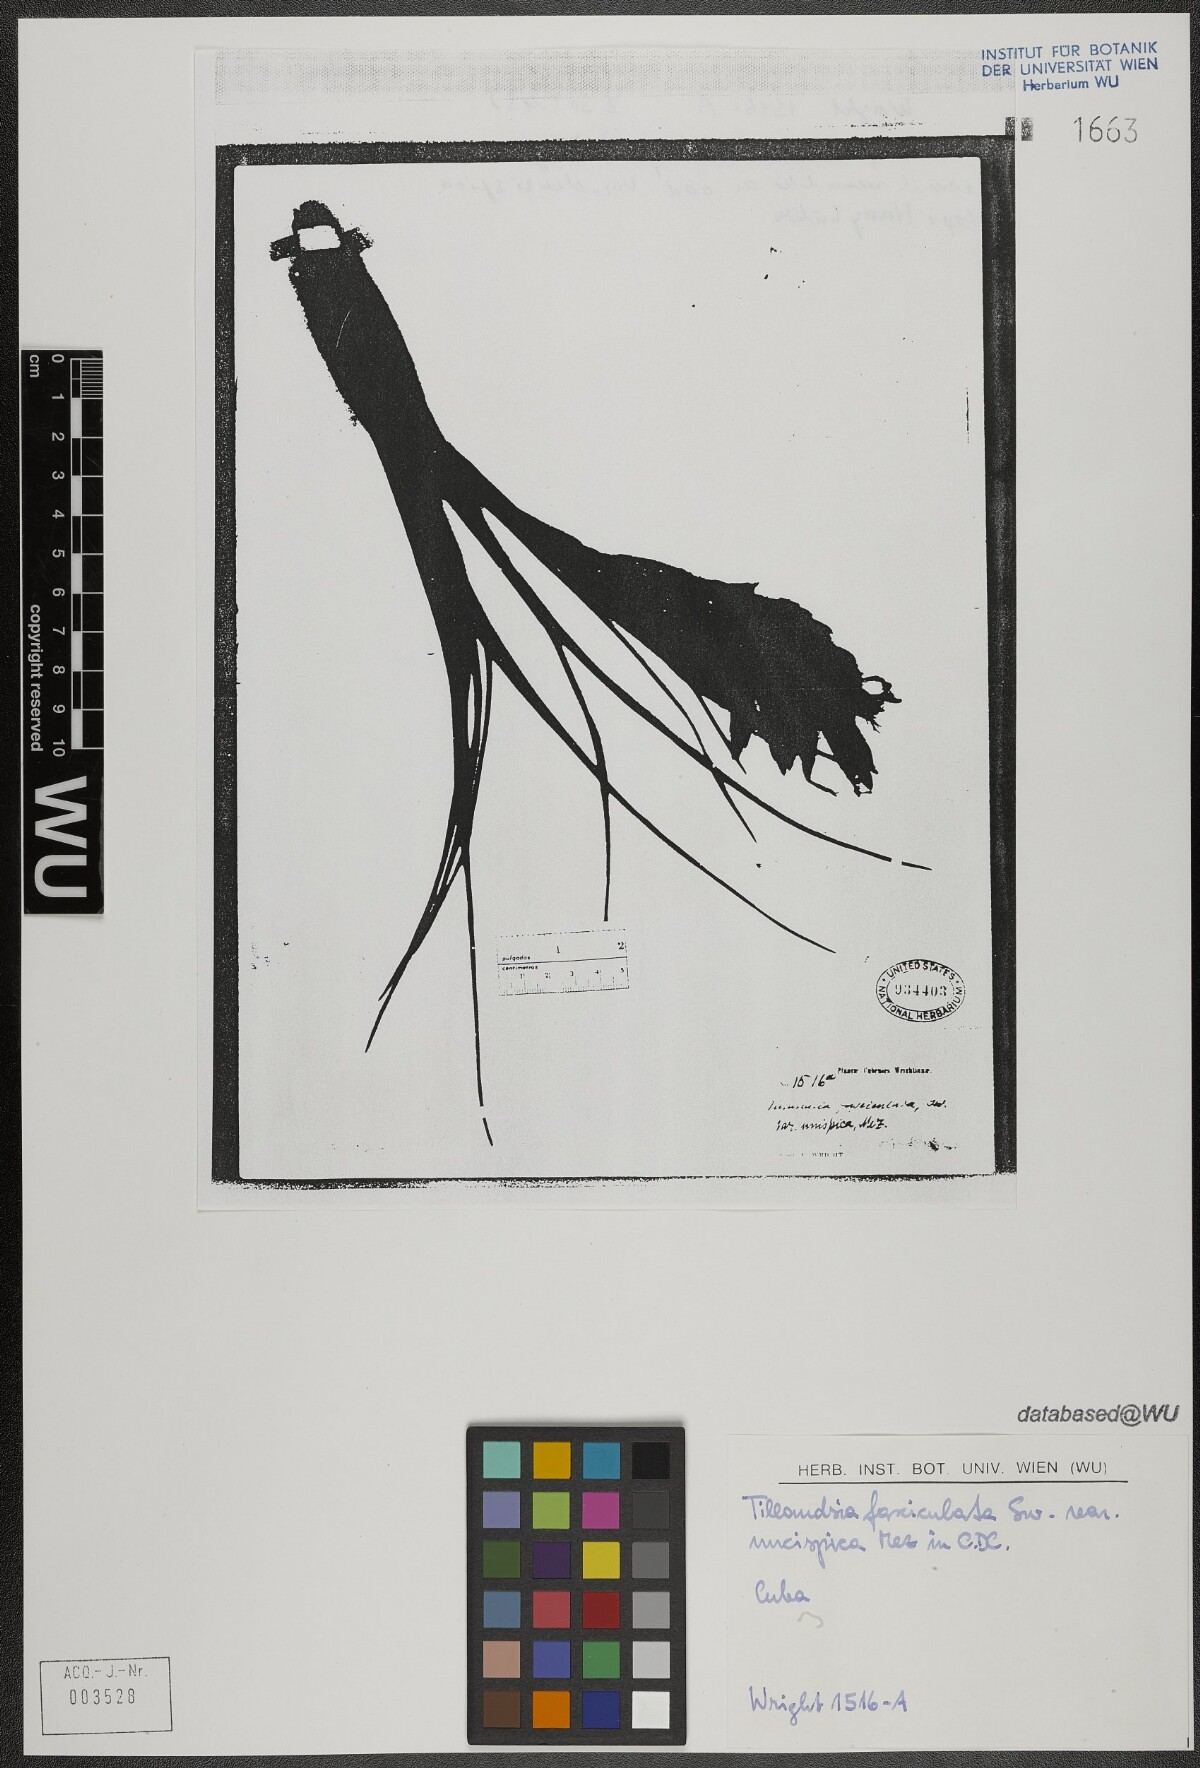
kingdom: Plantae
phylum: Tracheophyta
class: Liliopsida
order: Poales
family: Bromeliaceae
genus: Tillandsia
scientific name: Tillandsia fasciculata
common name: Giant airplant
